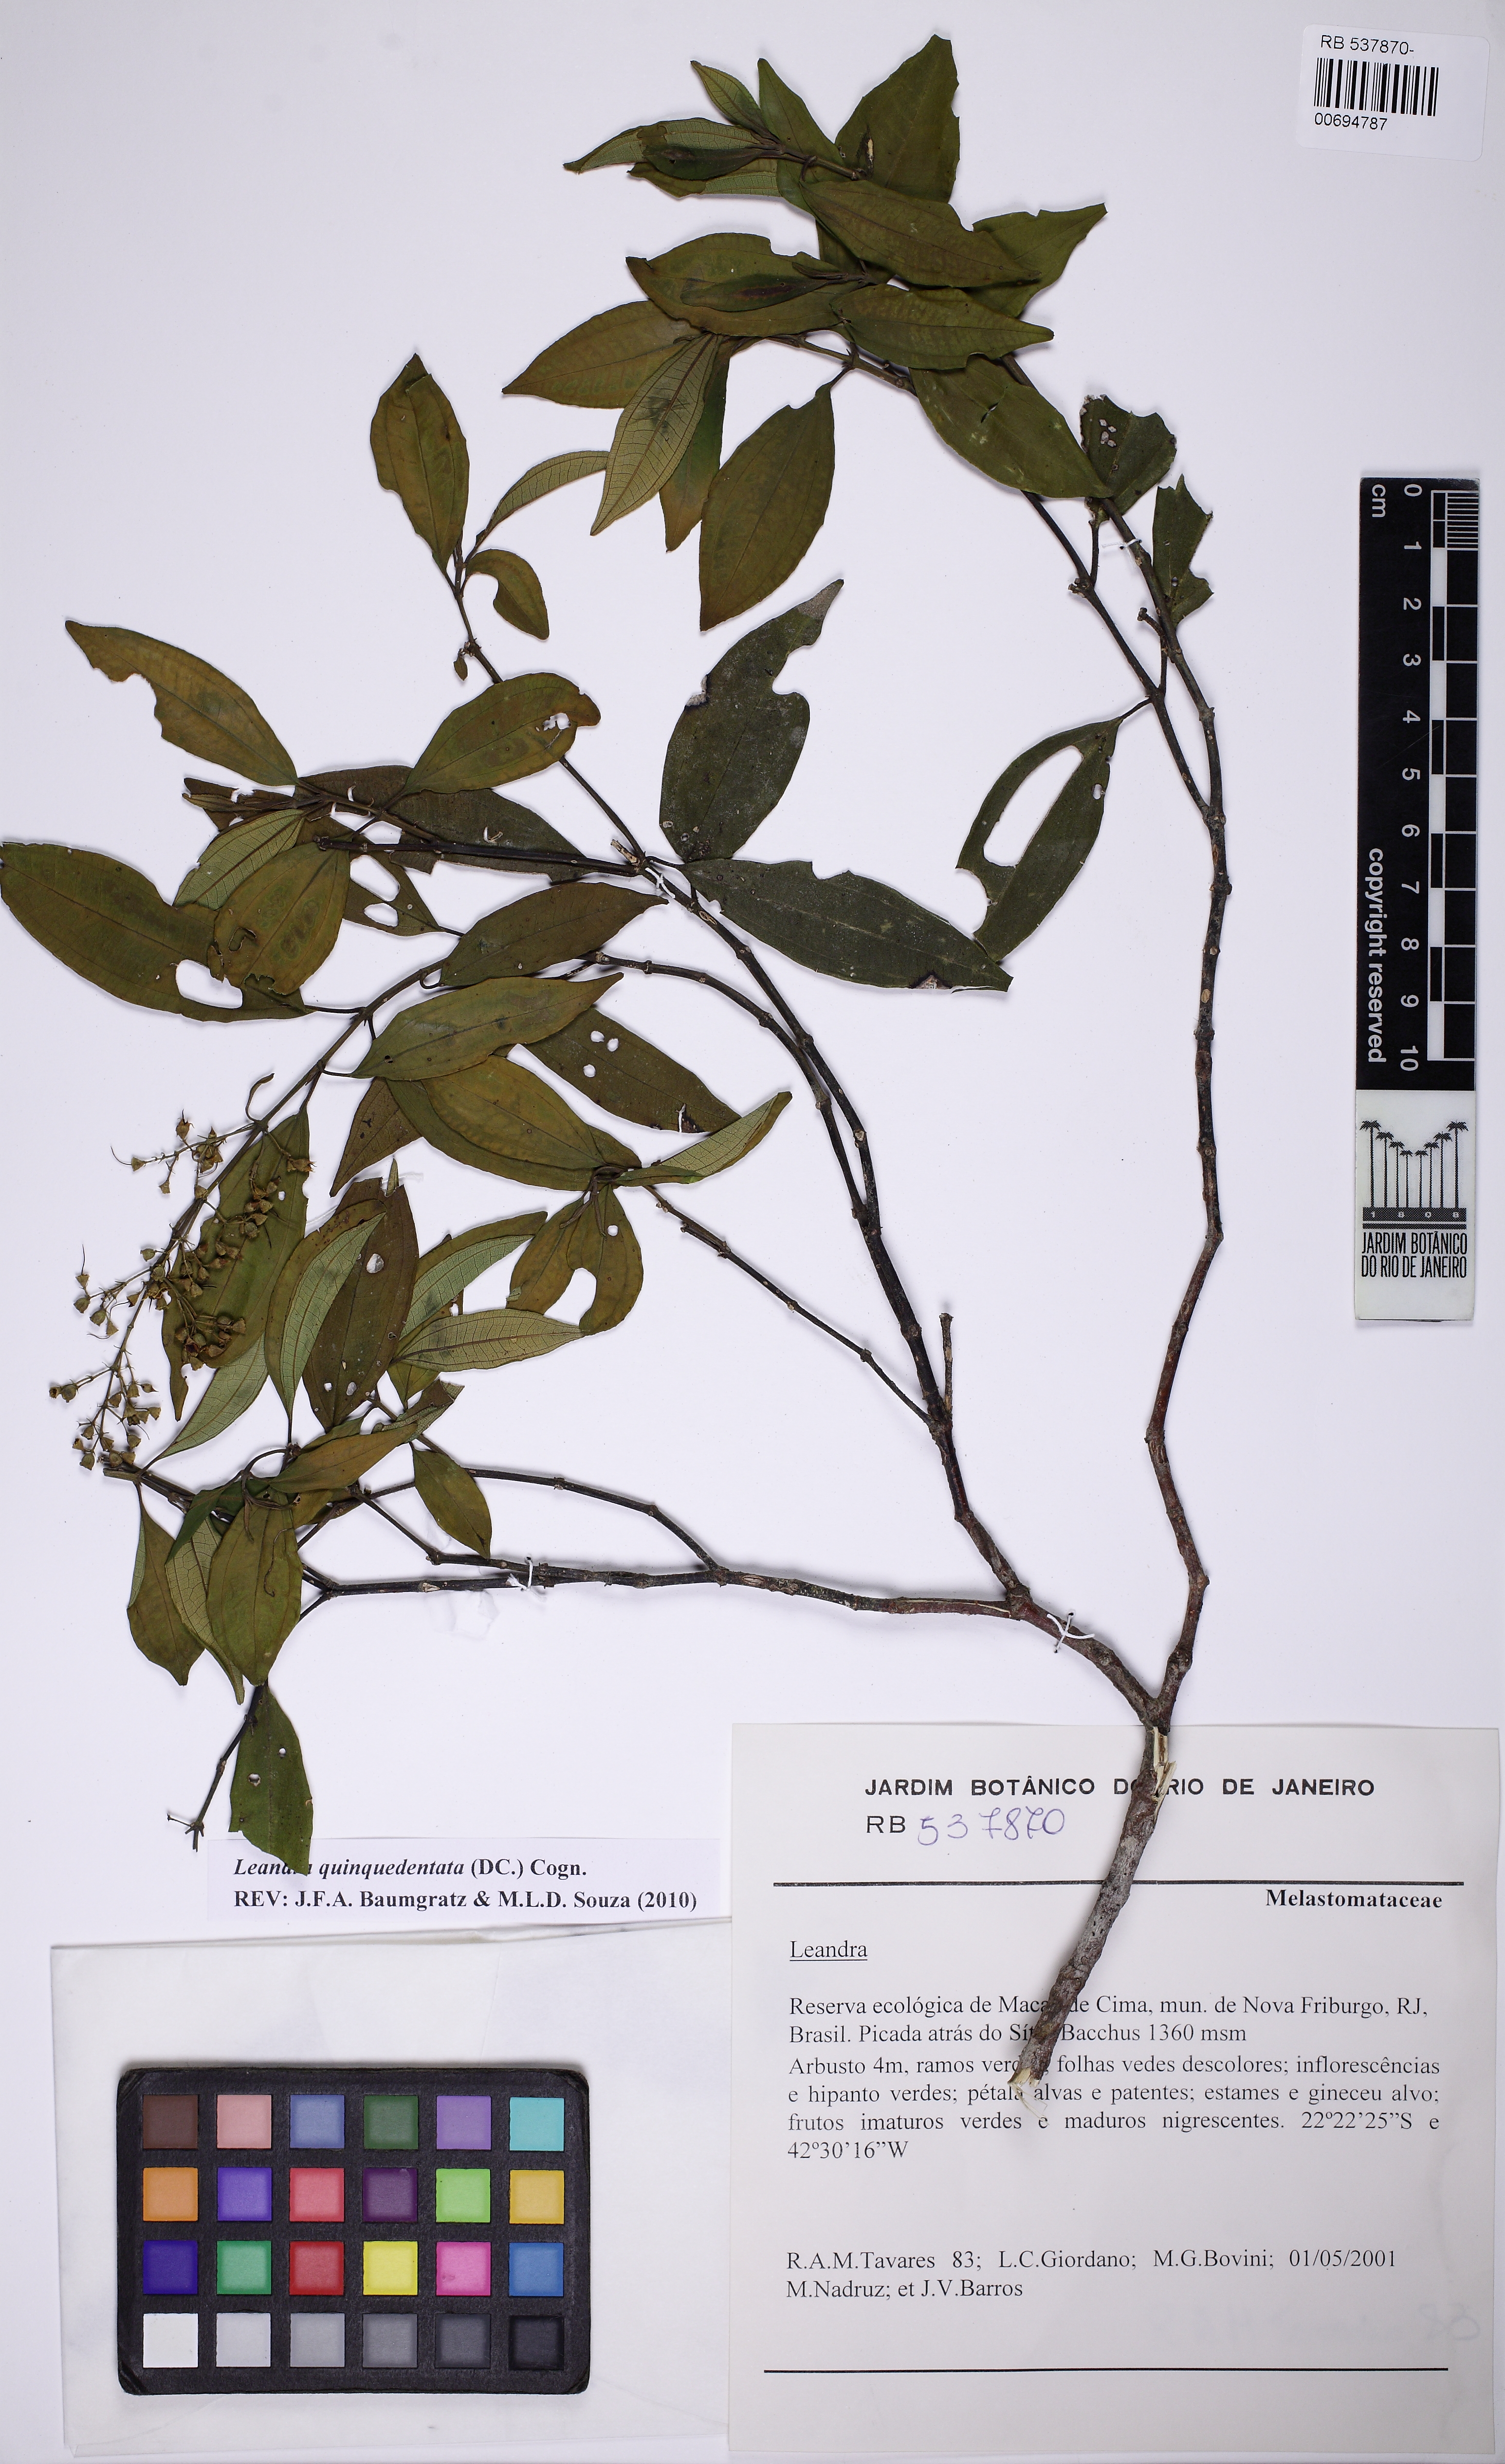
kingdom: Plantae
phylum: Tracheophyta
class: Magnoliopsida
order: Myrtales
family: Melastomataceae
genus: Miconia
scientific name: Miconia quinquedentata
